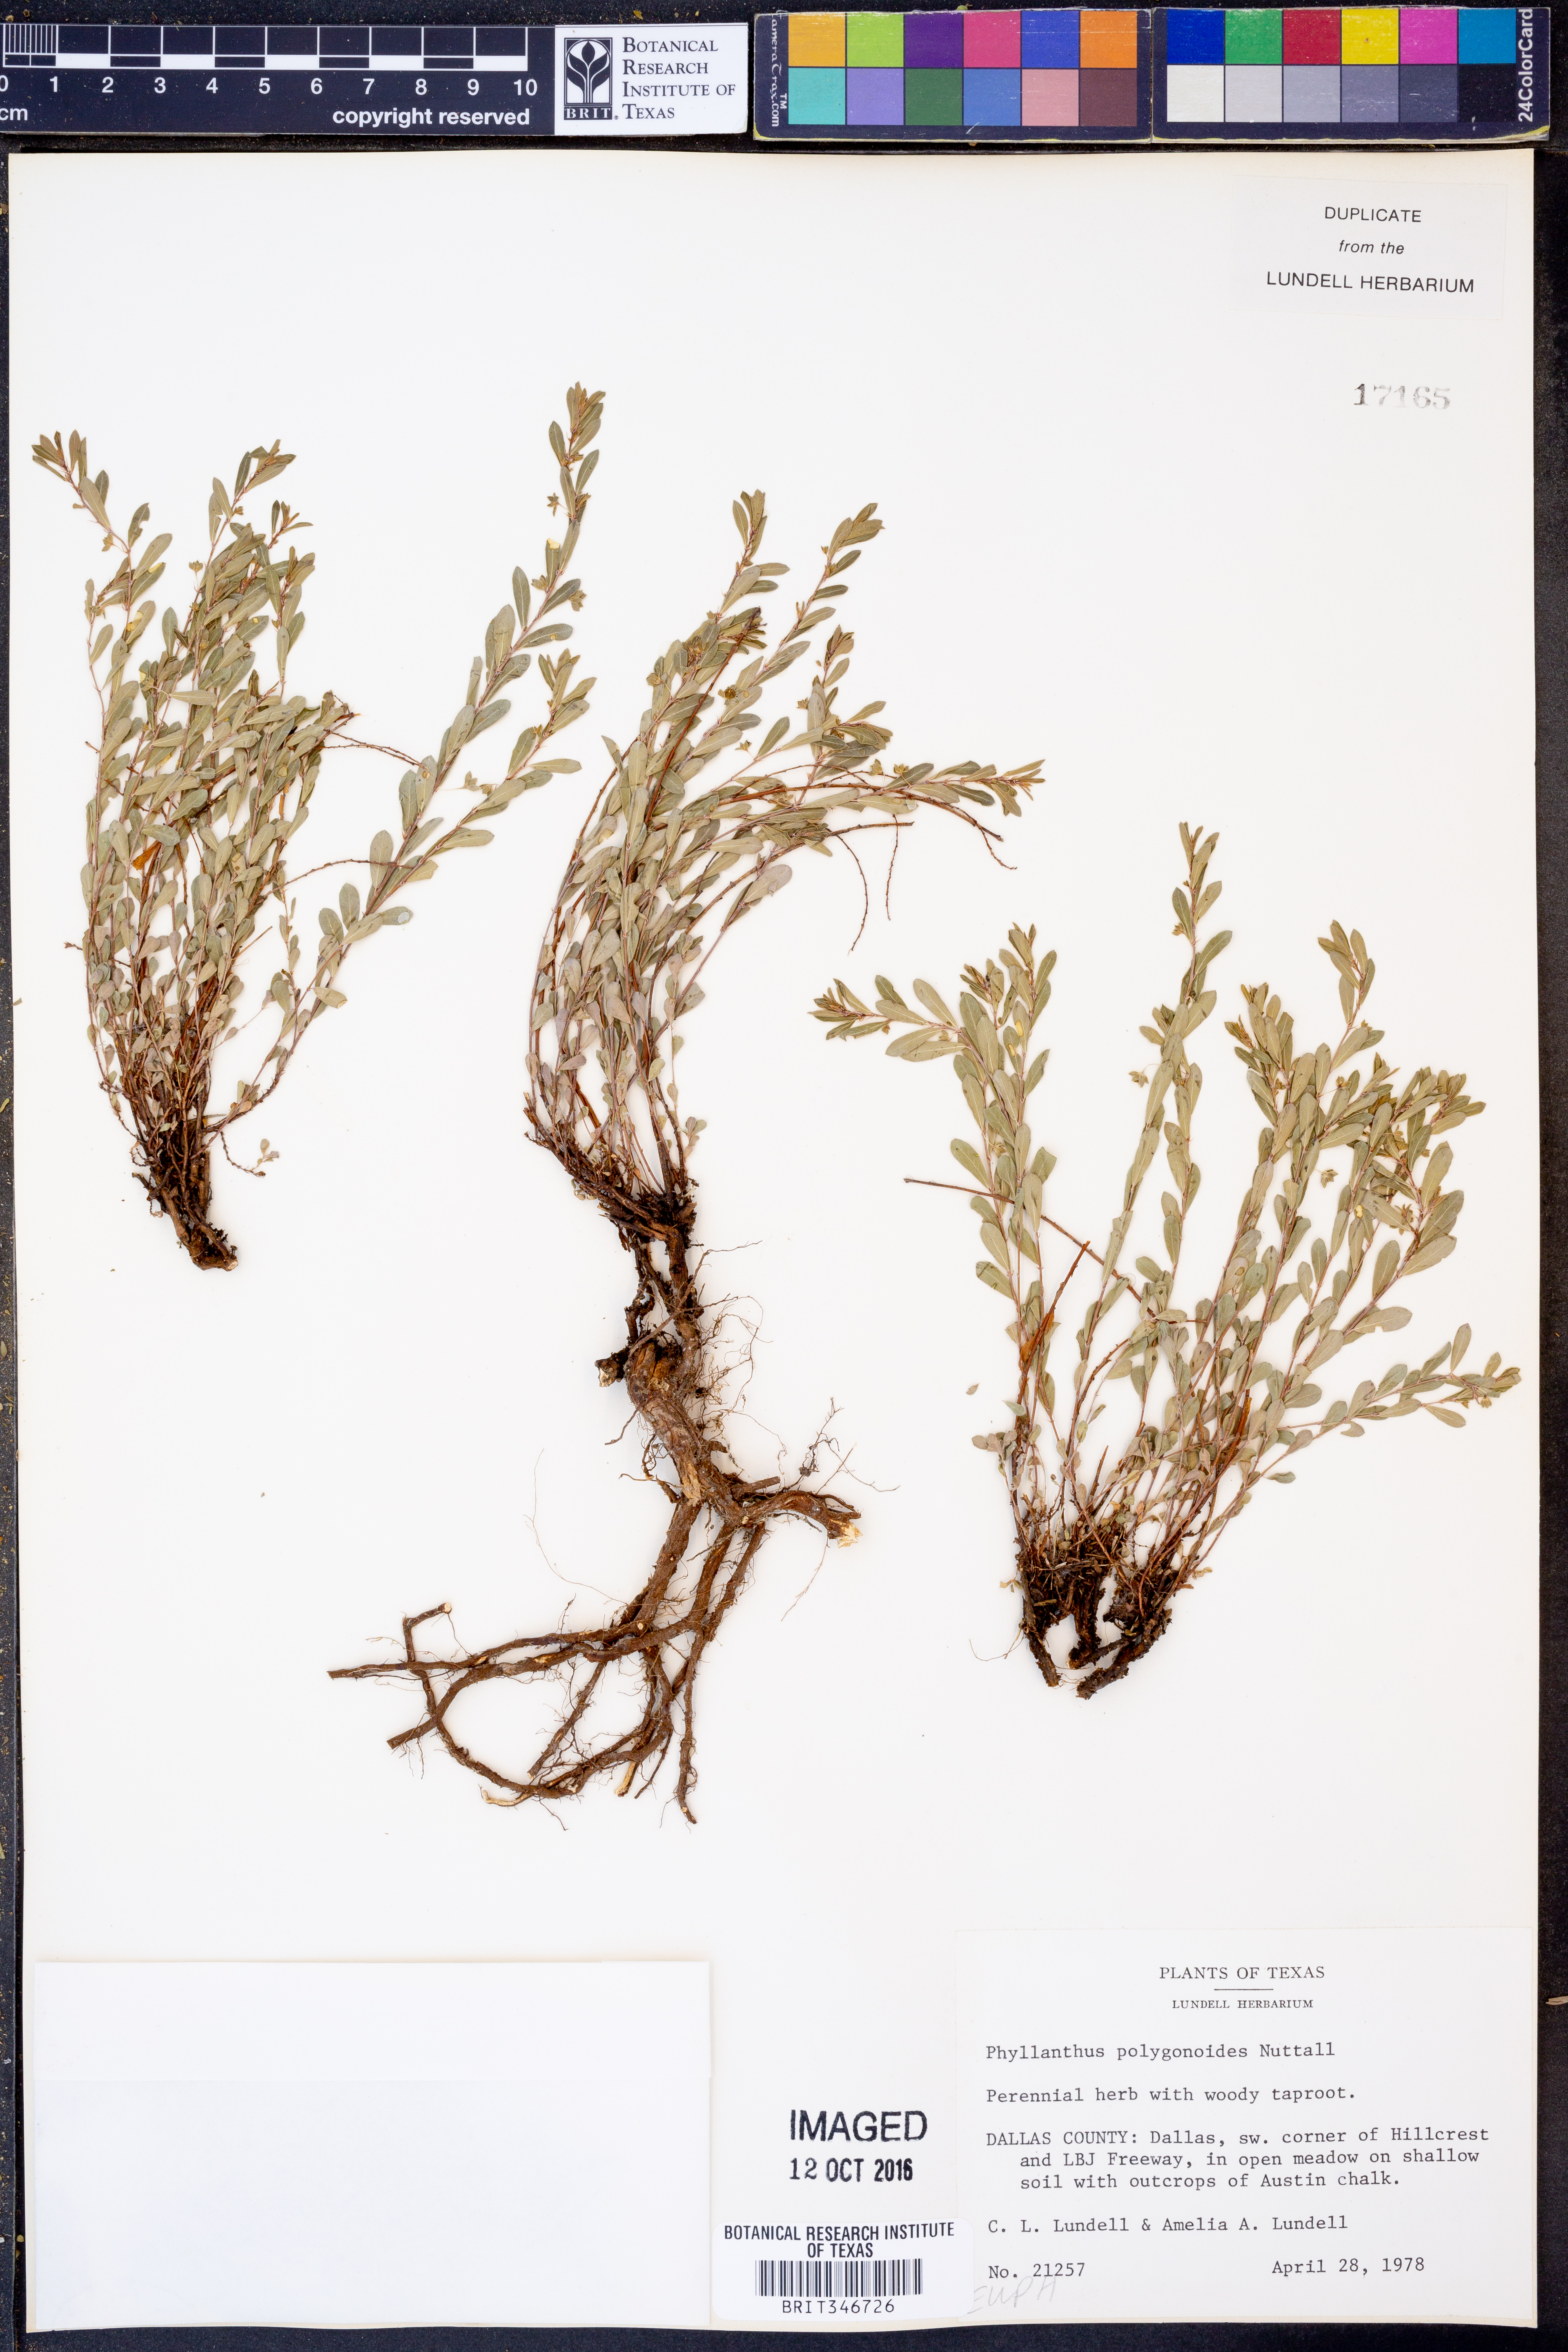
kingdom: Plantae
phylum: Tracheophyta
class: Magnoliopsida
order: Malpighiales
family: Phyllanthaceae
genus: Phyllanthus
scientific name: Phyllanthus polygonoides
